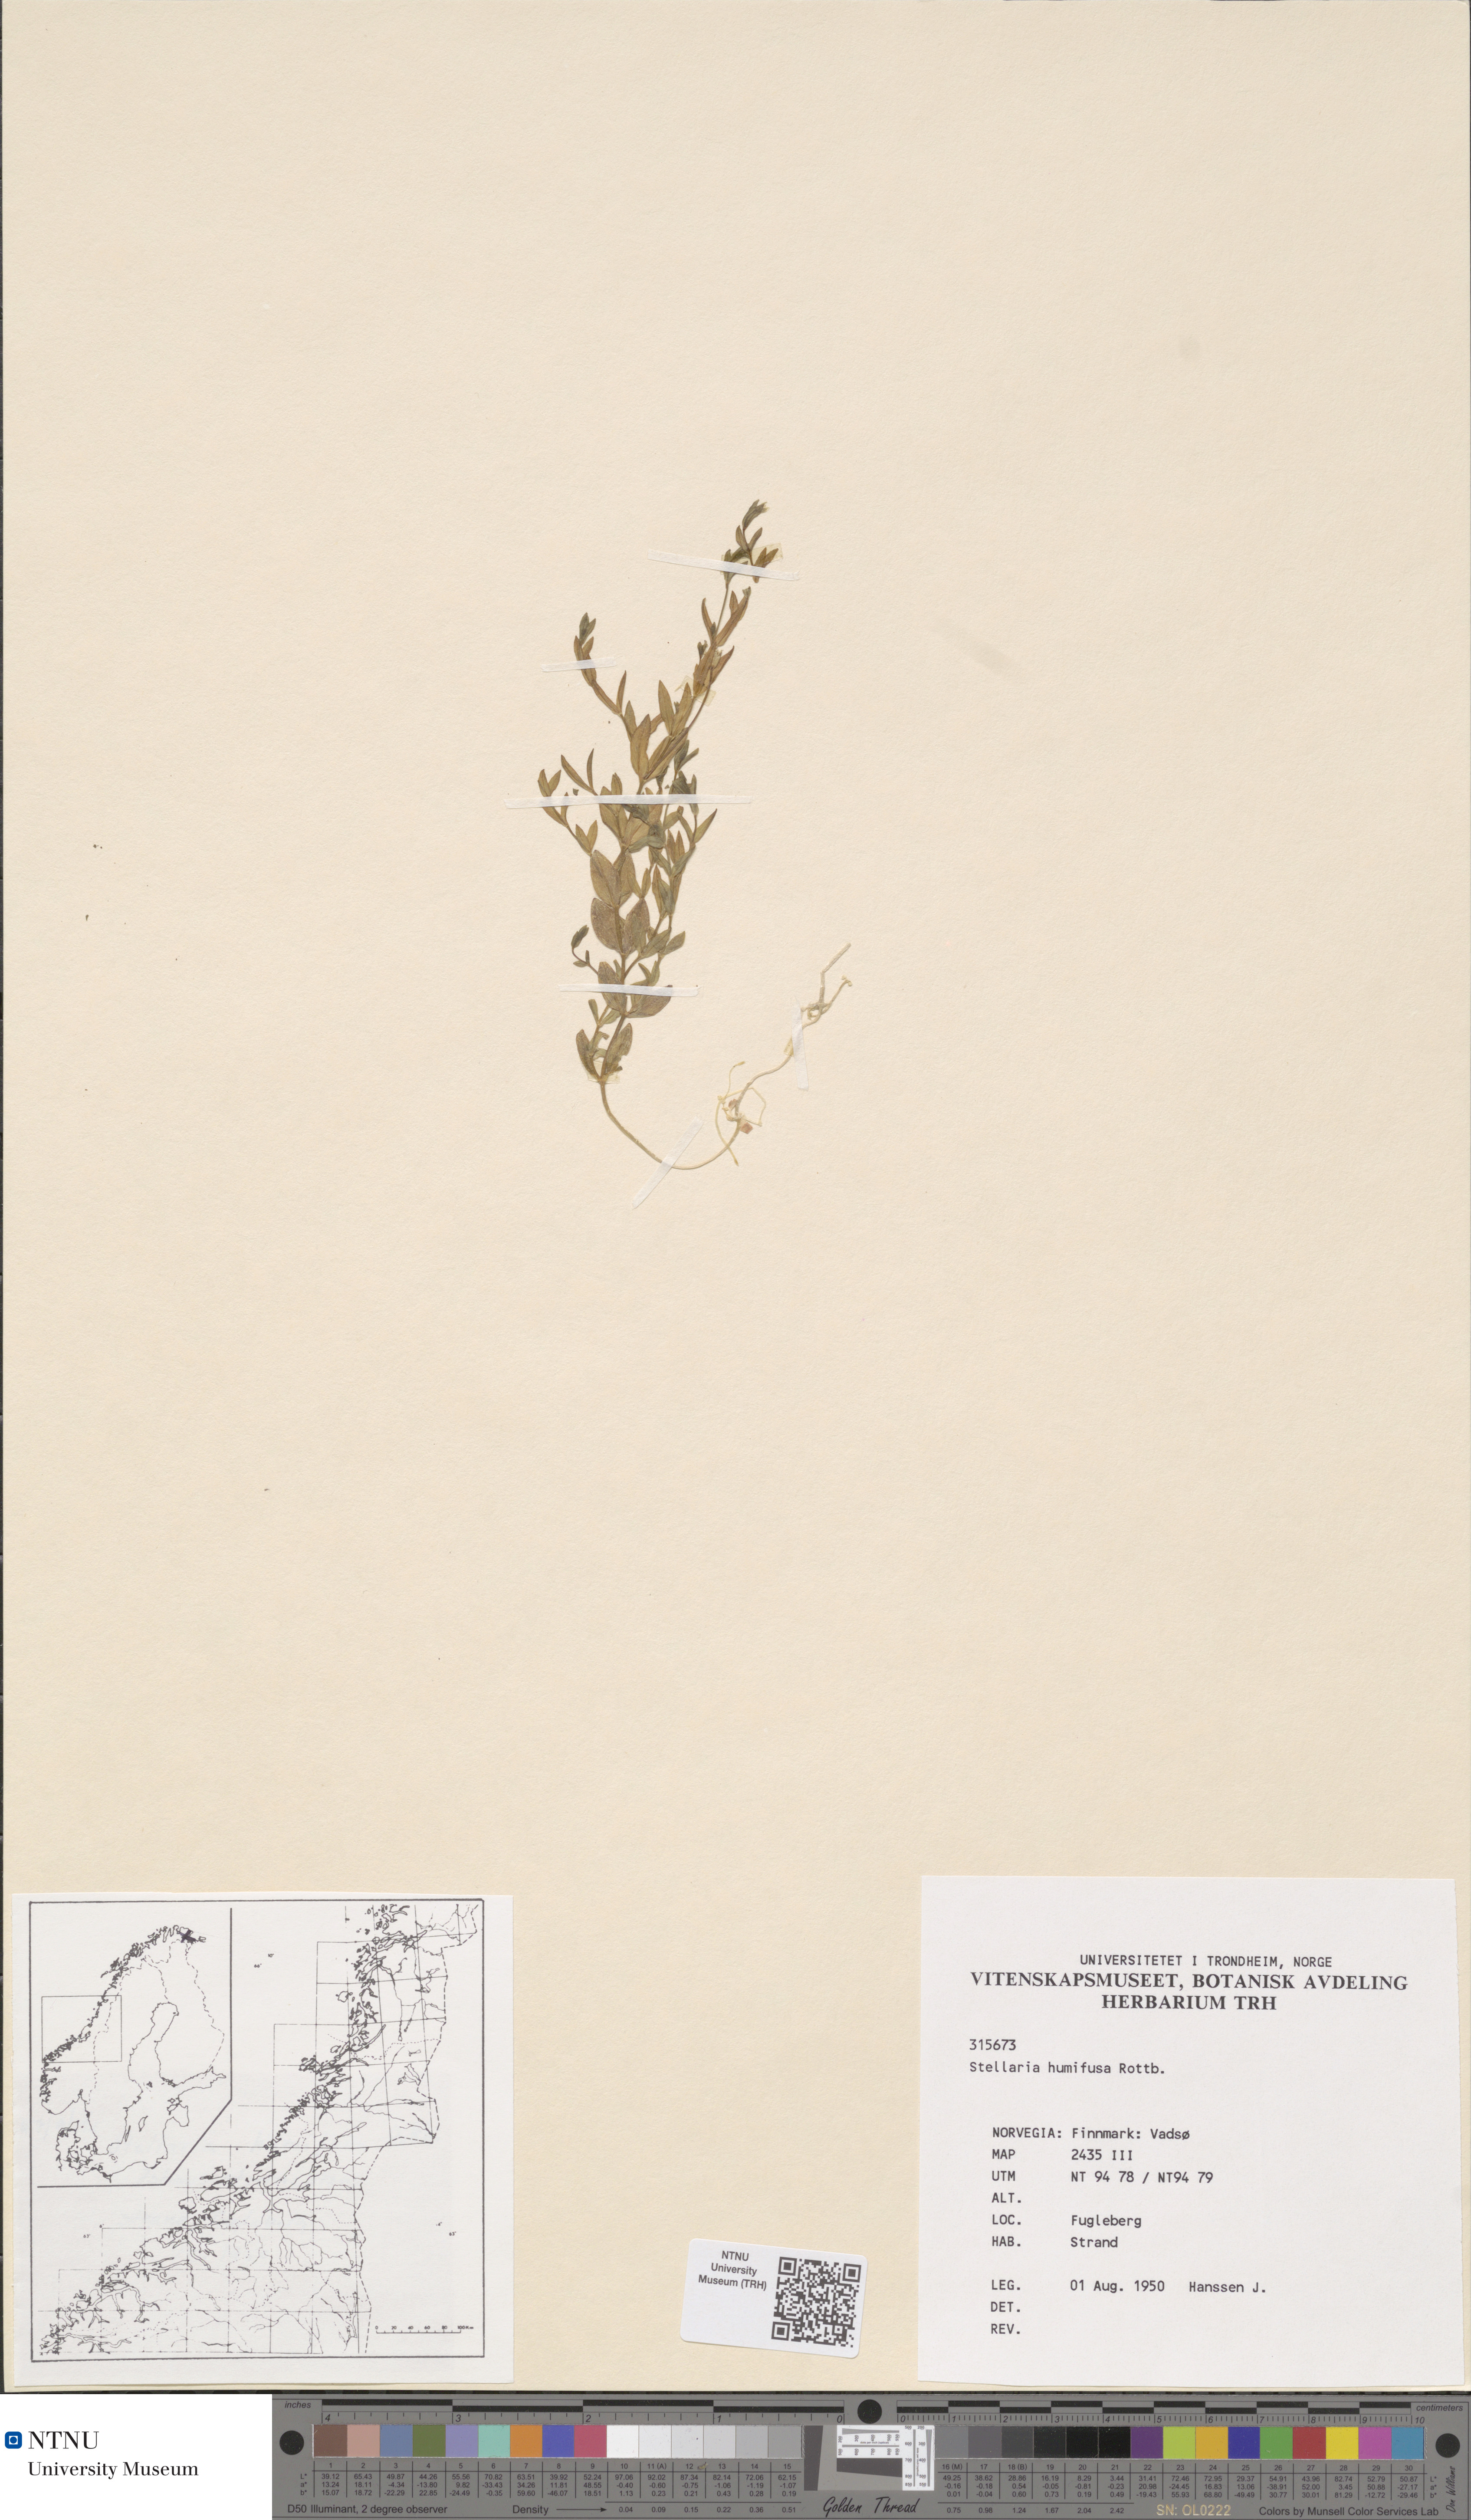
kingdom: Plantae
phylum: Tracheophyta
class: Magnoliopsida
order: Caryophyllales
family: Caryophyllaceae
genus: Stellaria
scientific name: Stellaria humifusa
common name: Creeping starwort
